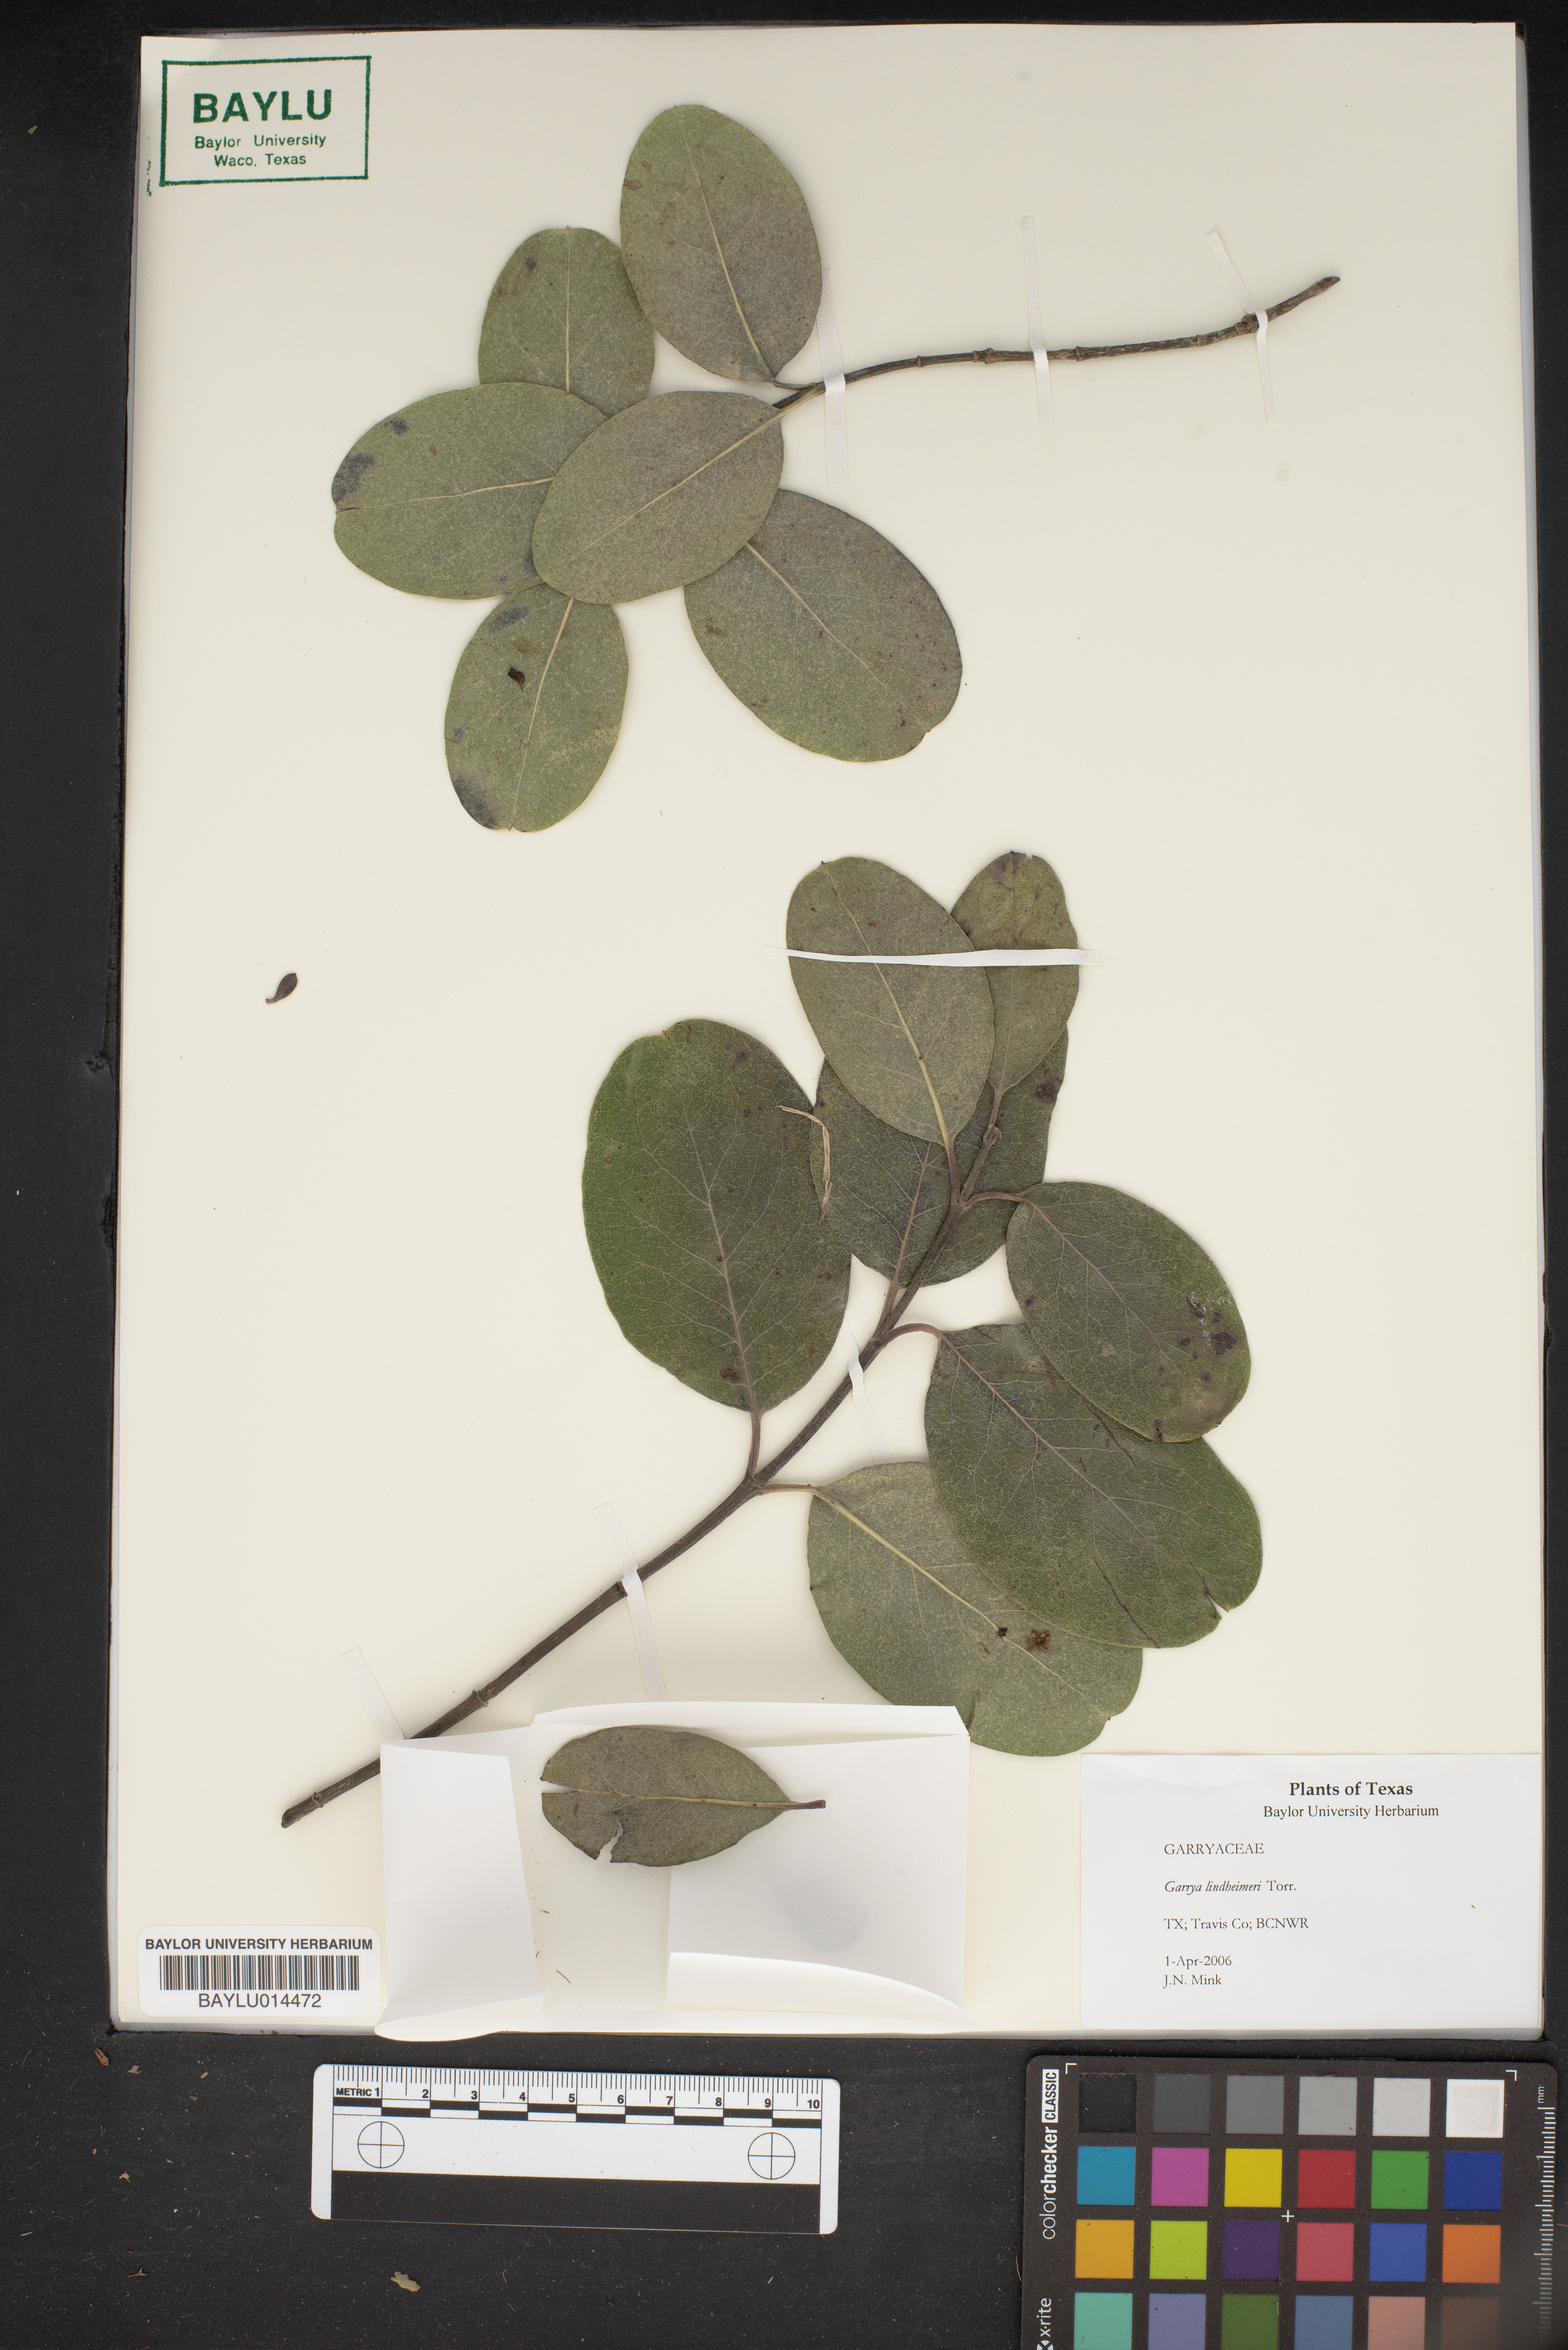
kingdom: Plantae
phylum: Tracheophyta
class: Magnoliopsida
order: Garryales
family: Garryaceae
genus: Garrya
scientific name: Garrya lindheimeri
